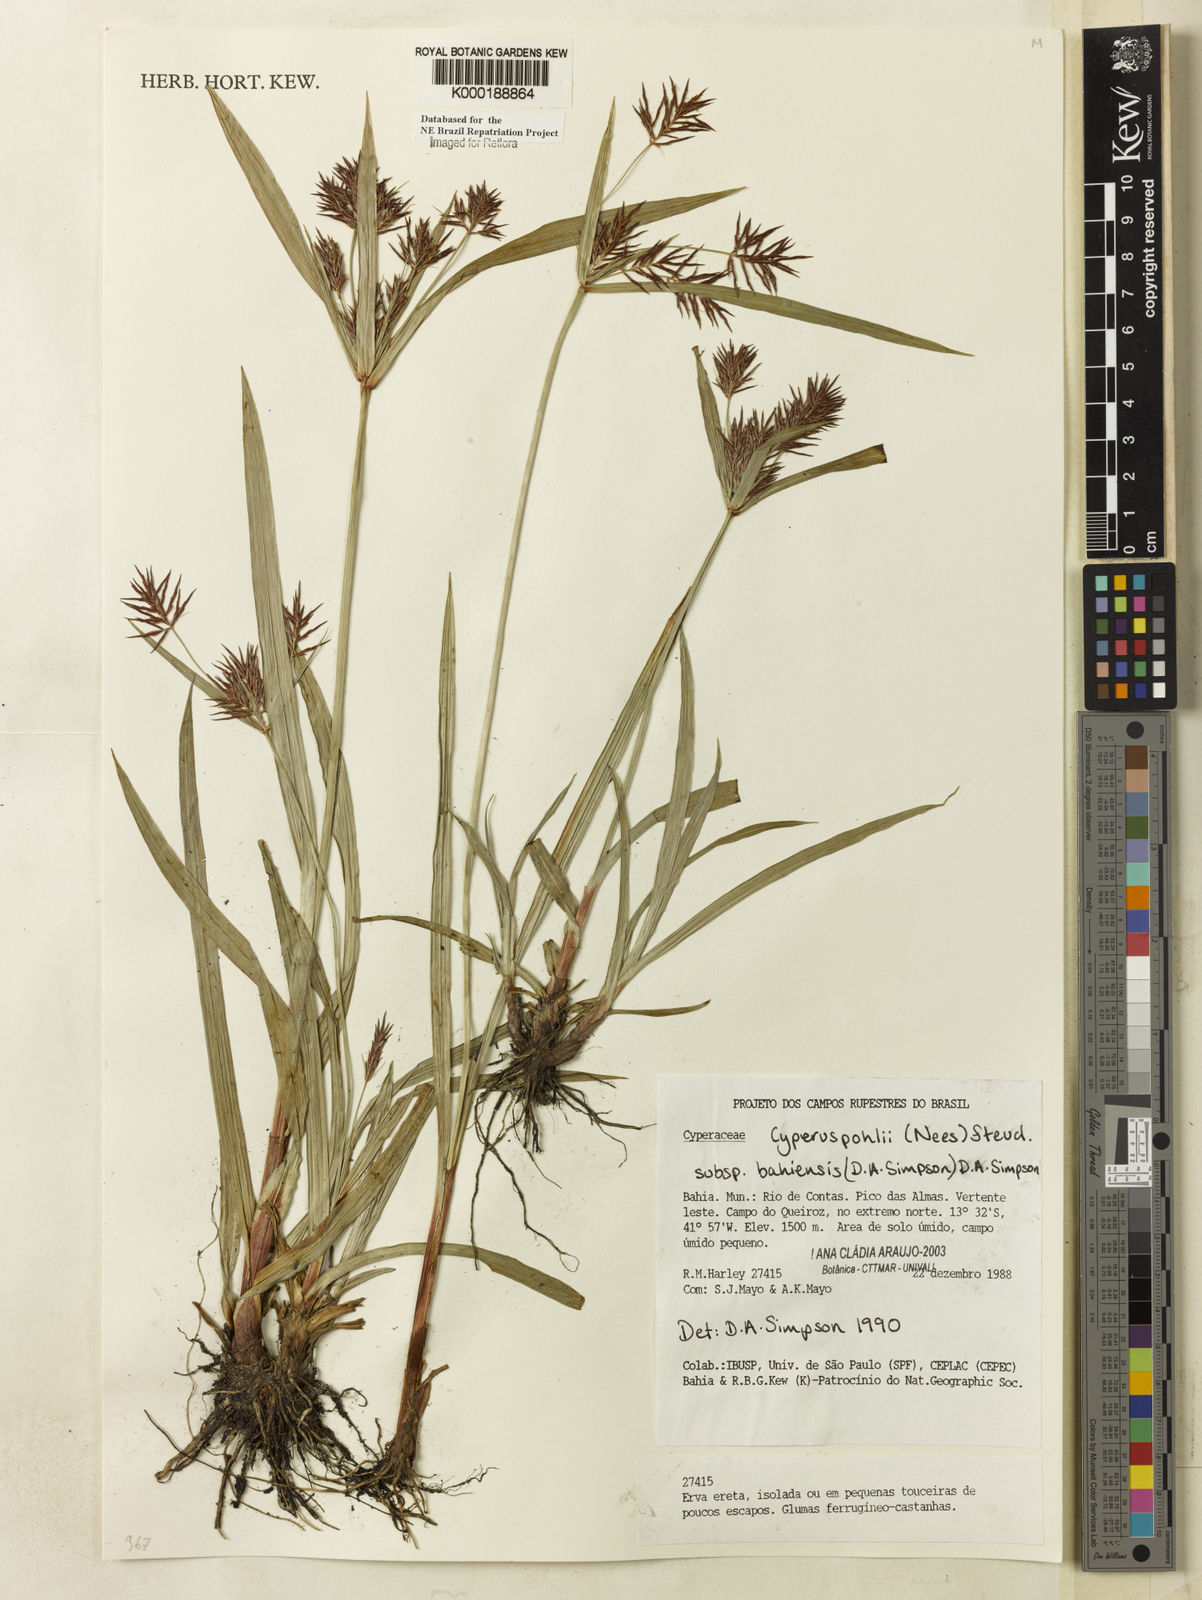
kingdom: Plantae
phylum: Tracheophyta
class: Liliopsida
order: Poales
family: Cyperaceae
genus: Cyperus
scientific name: Cyperus pohlii
